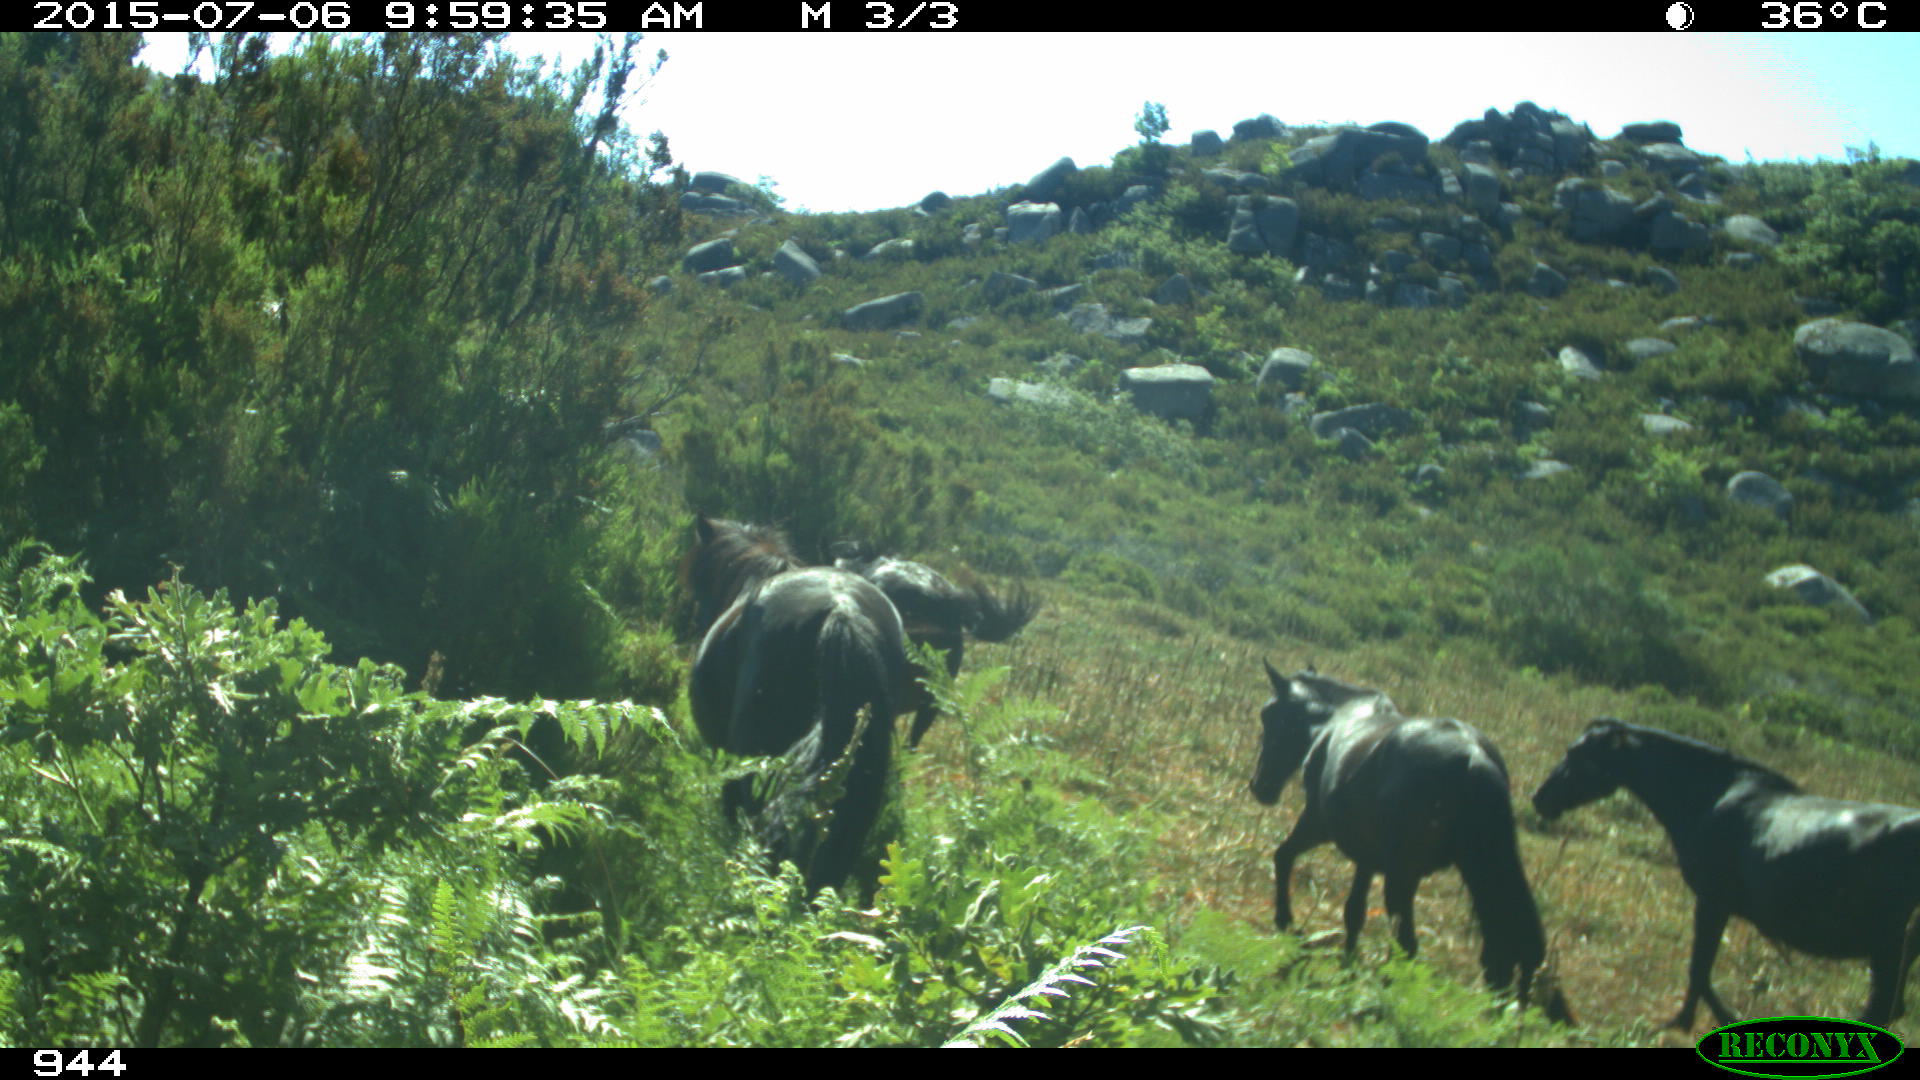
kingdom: Animalia
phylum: Chordata
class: Mammalia
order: Perissodactyla
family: Equidae
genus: Equus
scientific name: Equus caballus
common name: Horse
